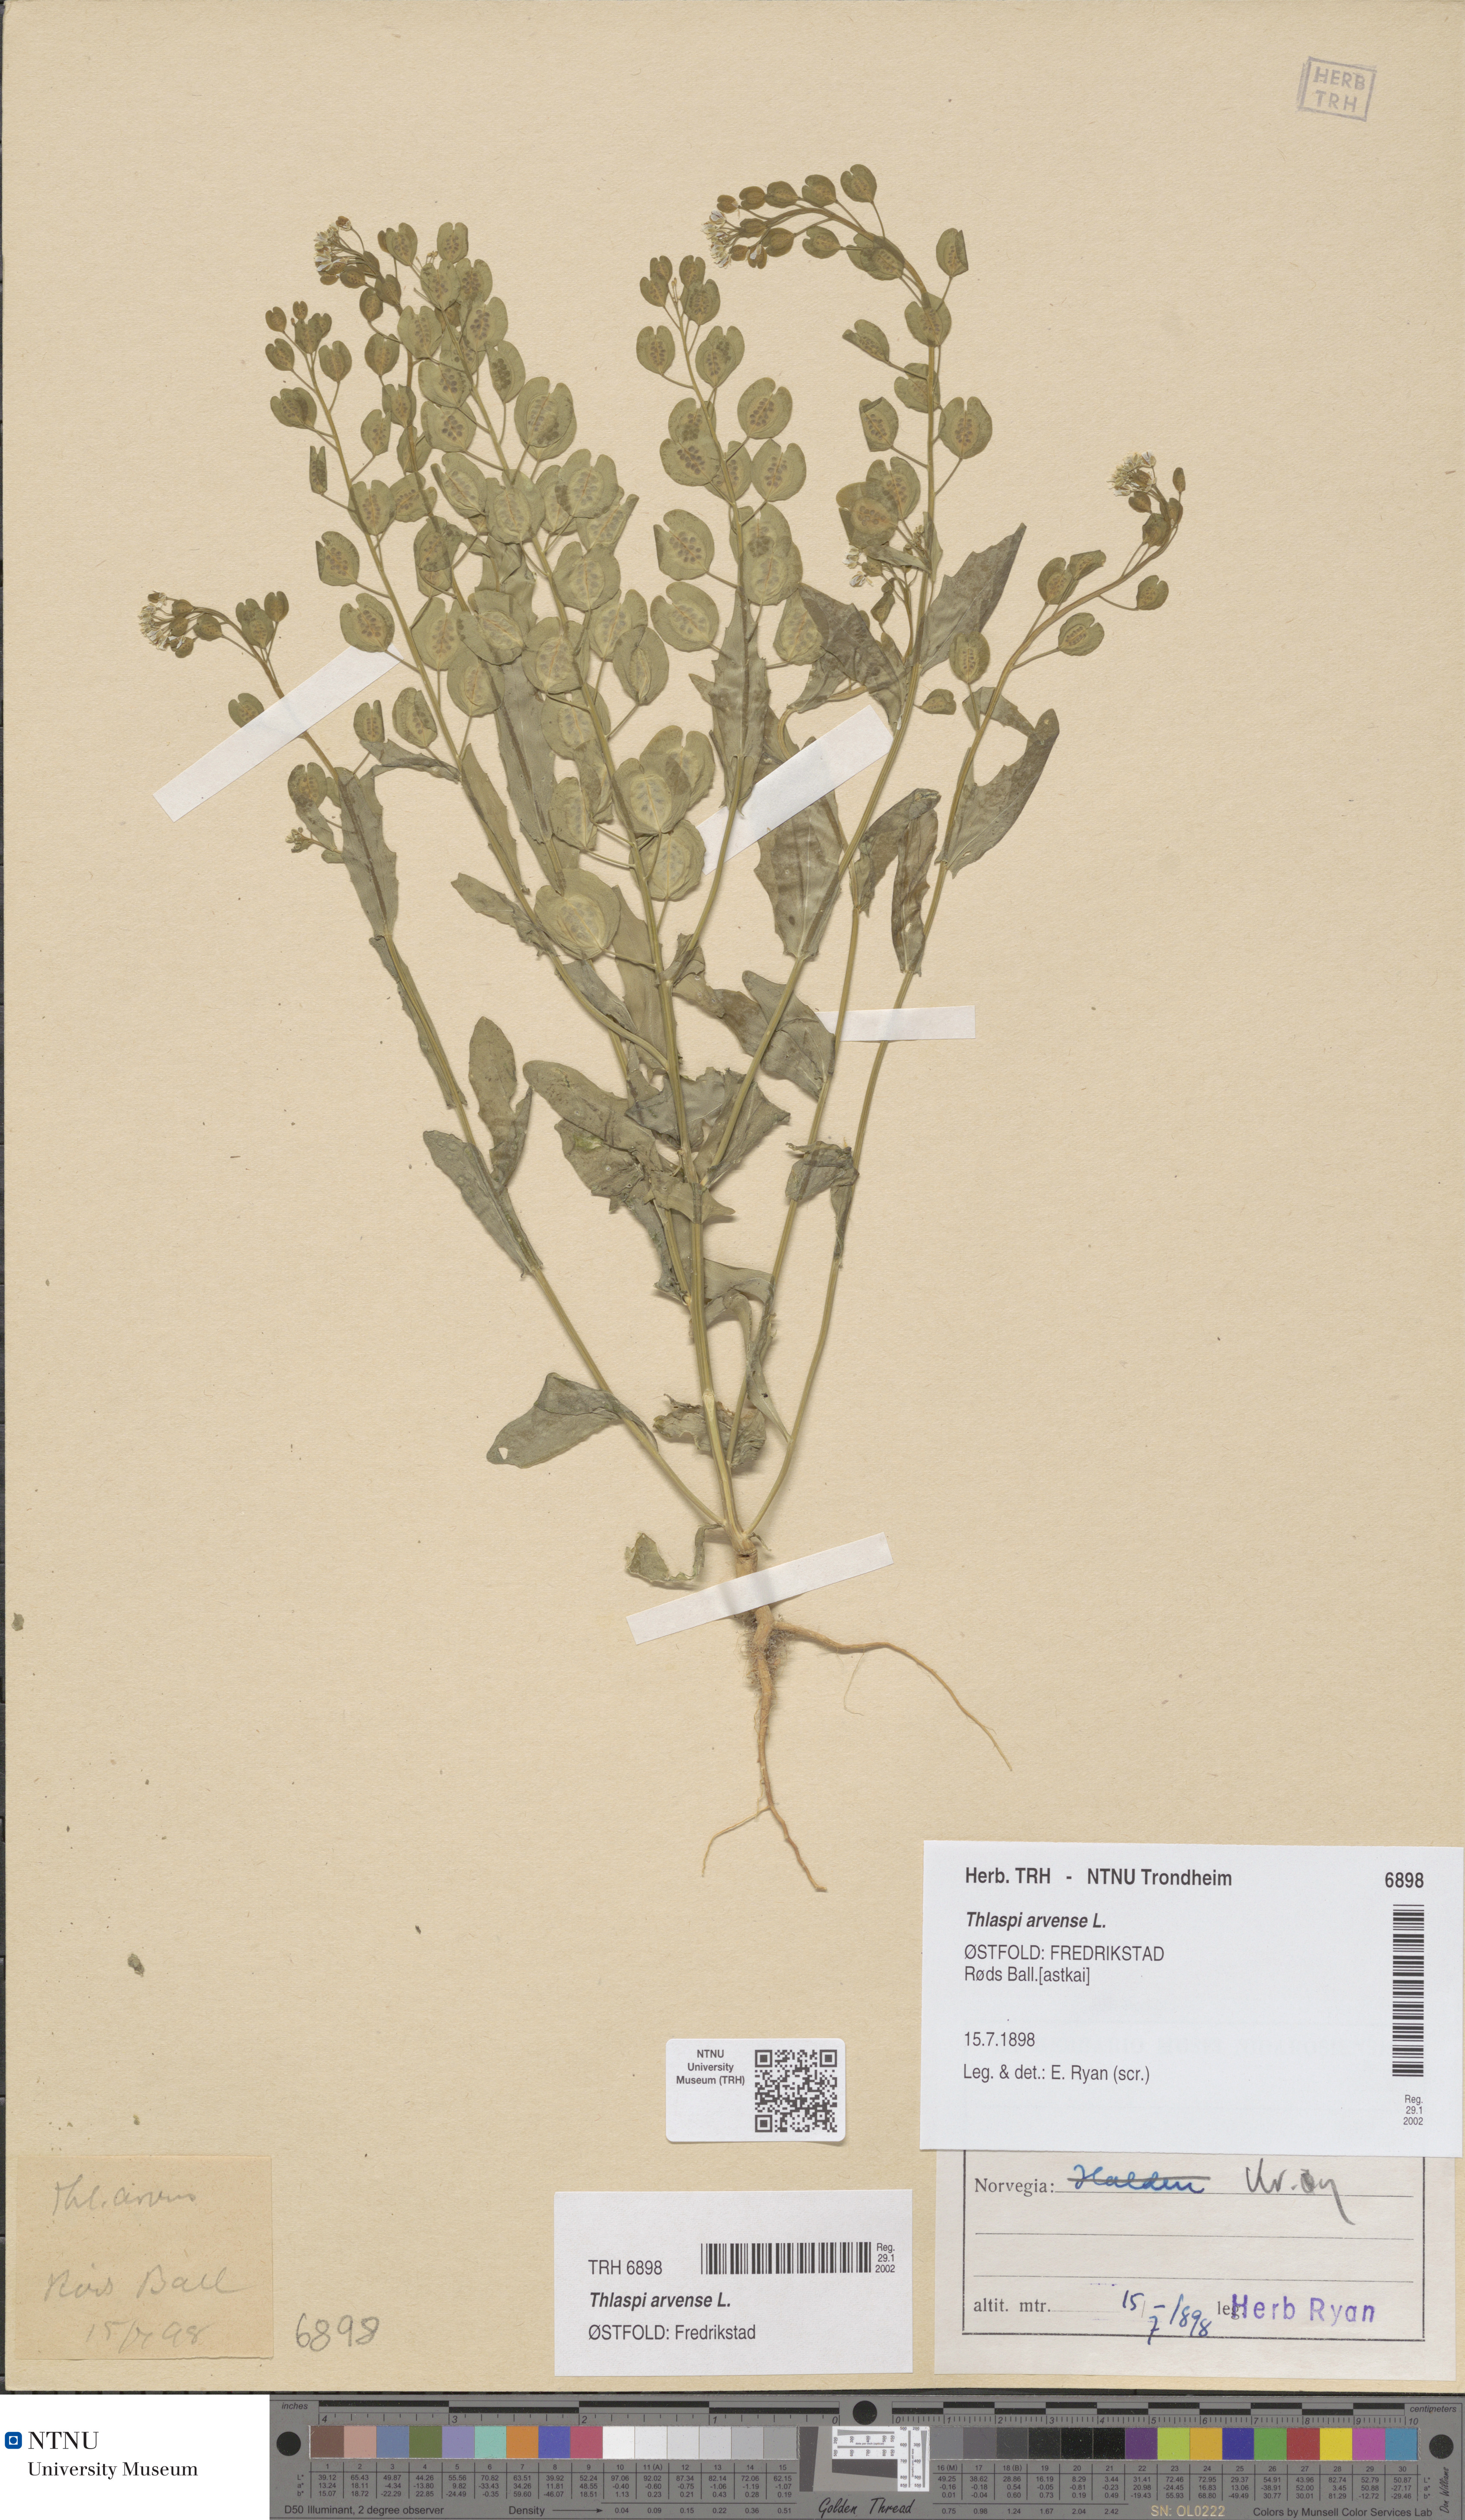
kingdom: Plantae
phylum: Tracheophyta
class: Magnoliopsida
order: Brassicales
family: Brassicaceae
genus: Thlaspi
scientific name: Thlaspi arvense
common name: Field pennycress
